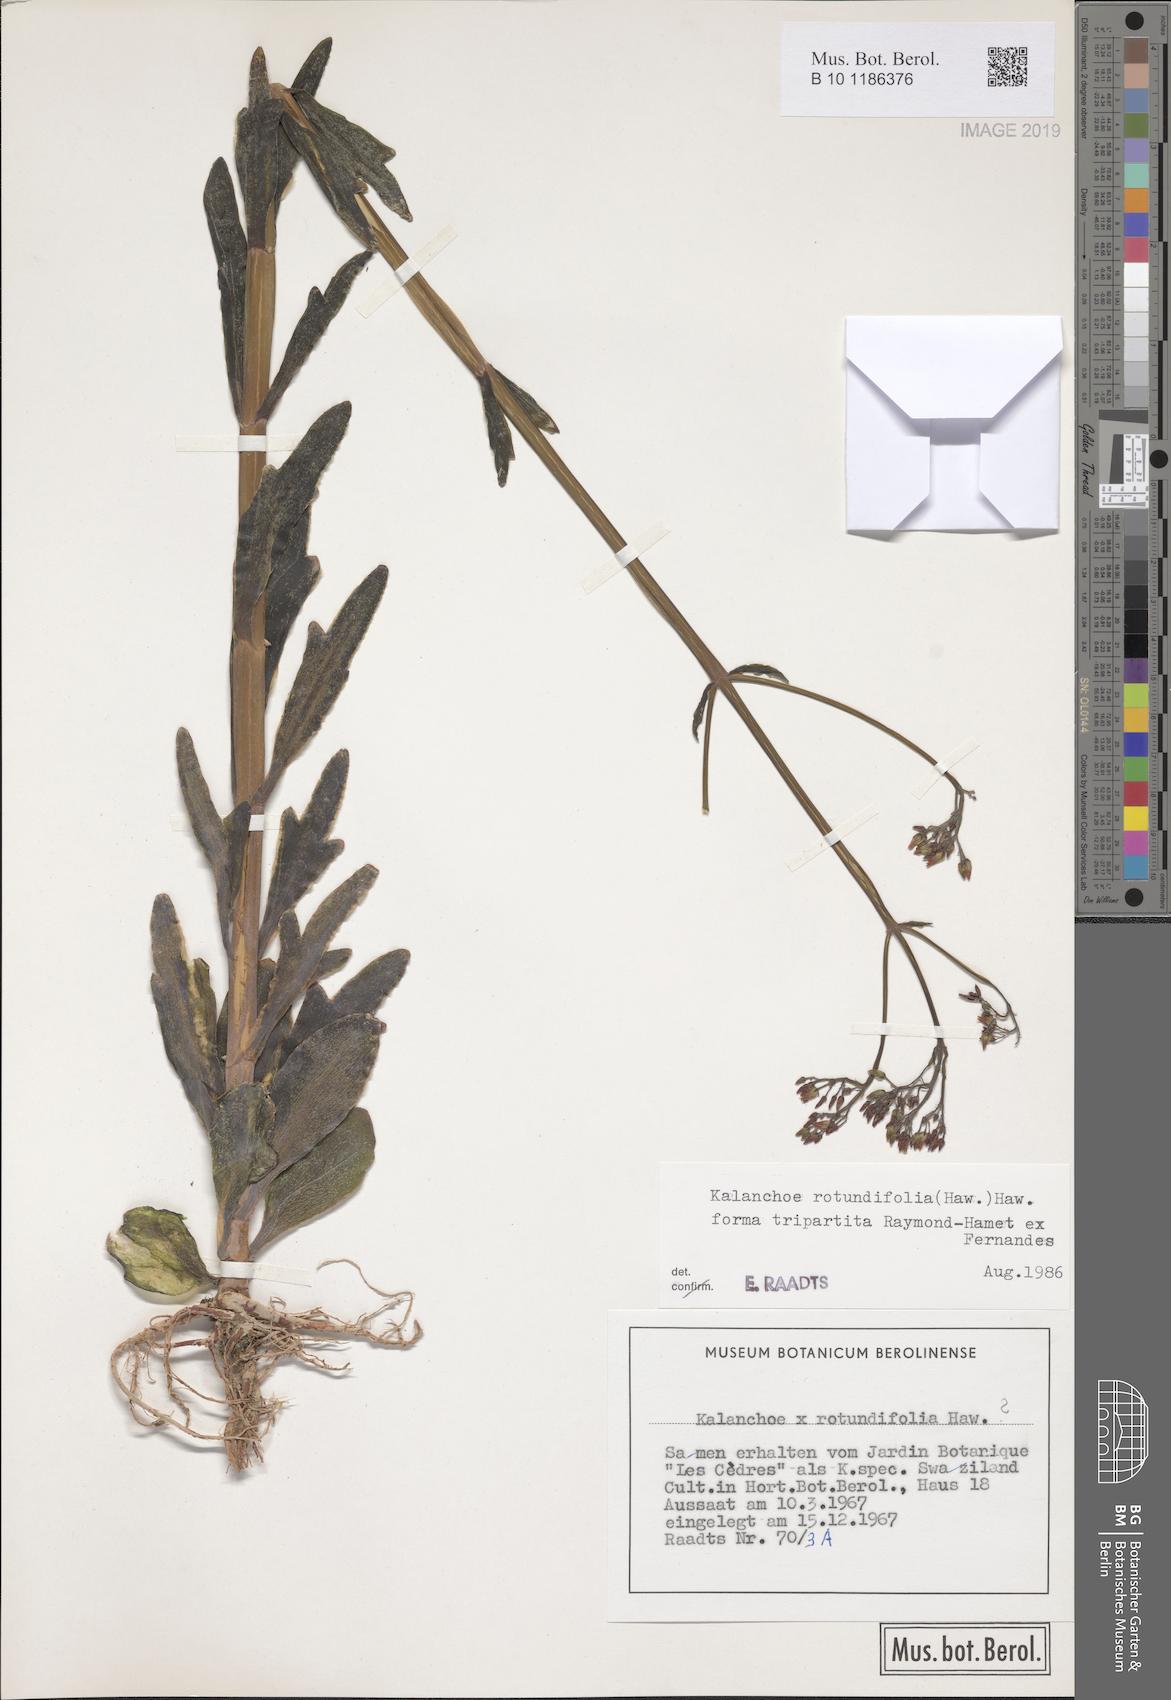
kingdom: Plantae
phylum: Tracheophyta
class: Magnoliopsida
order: Saxifragales
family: Crassulaceae
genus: Kalanchoe
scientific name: Kalanchoe rotundifolia
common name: Common kalanchoe
